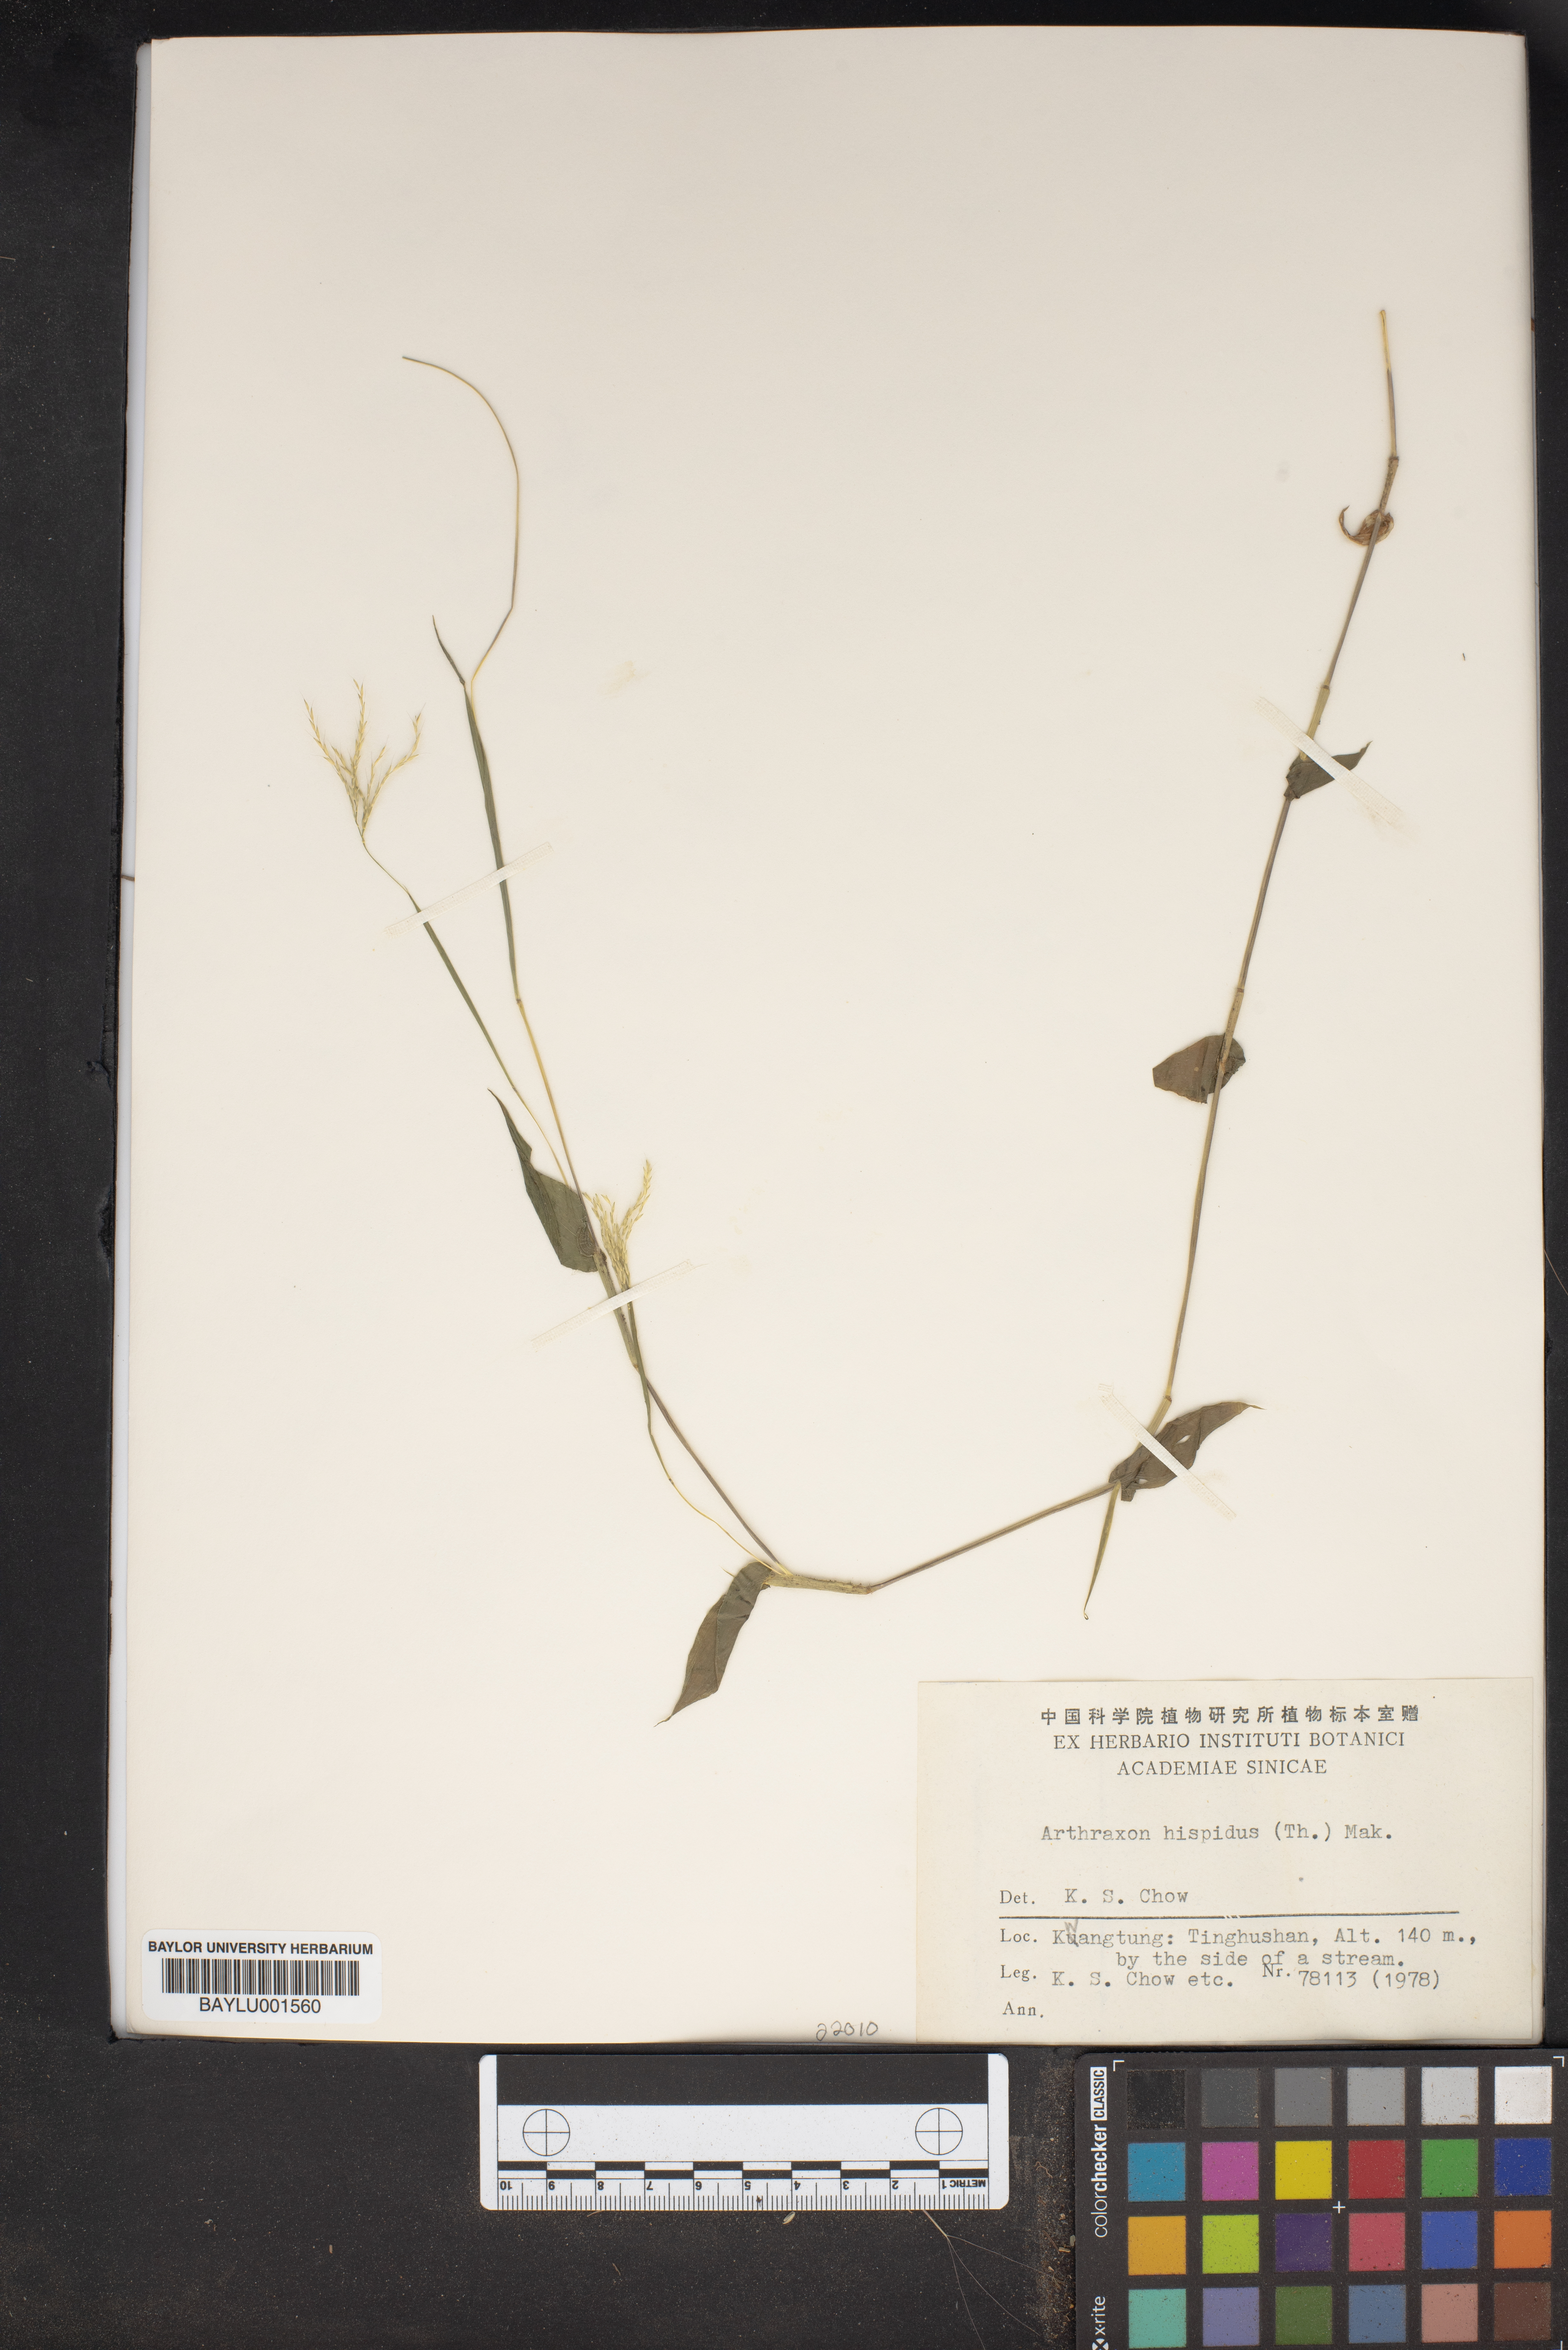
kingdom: Plantae
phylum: Tracheophyta
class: Liliopsida
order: Poales
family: Poaceae
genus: Arthraxon
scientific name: Arthraxon hispidus
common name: Small carpgrass
